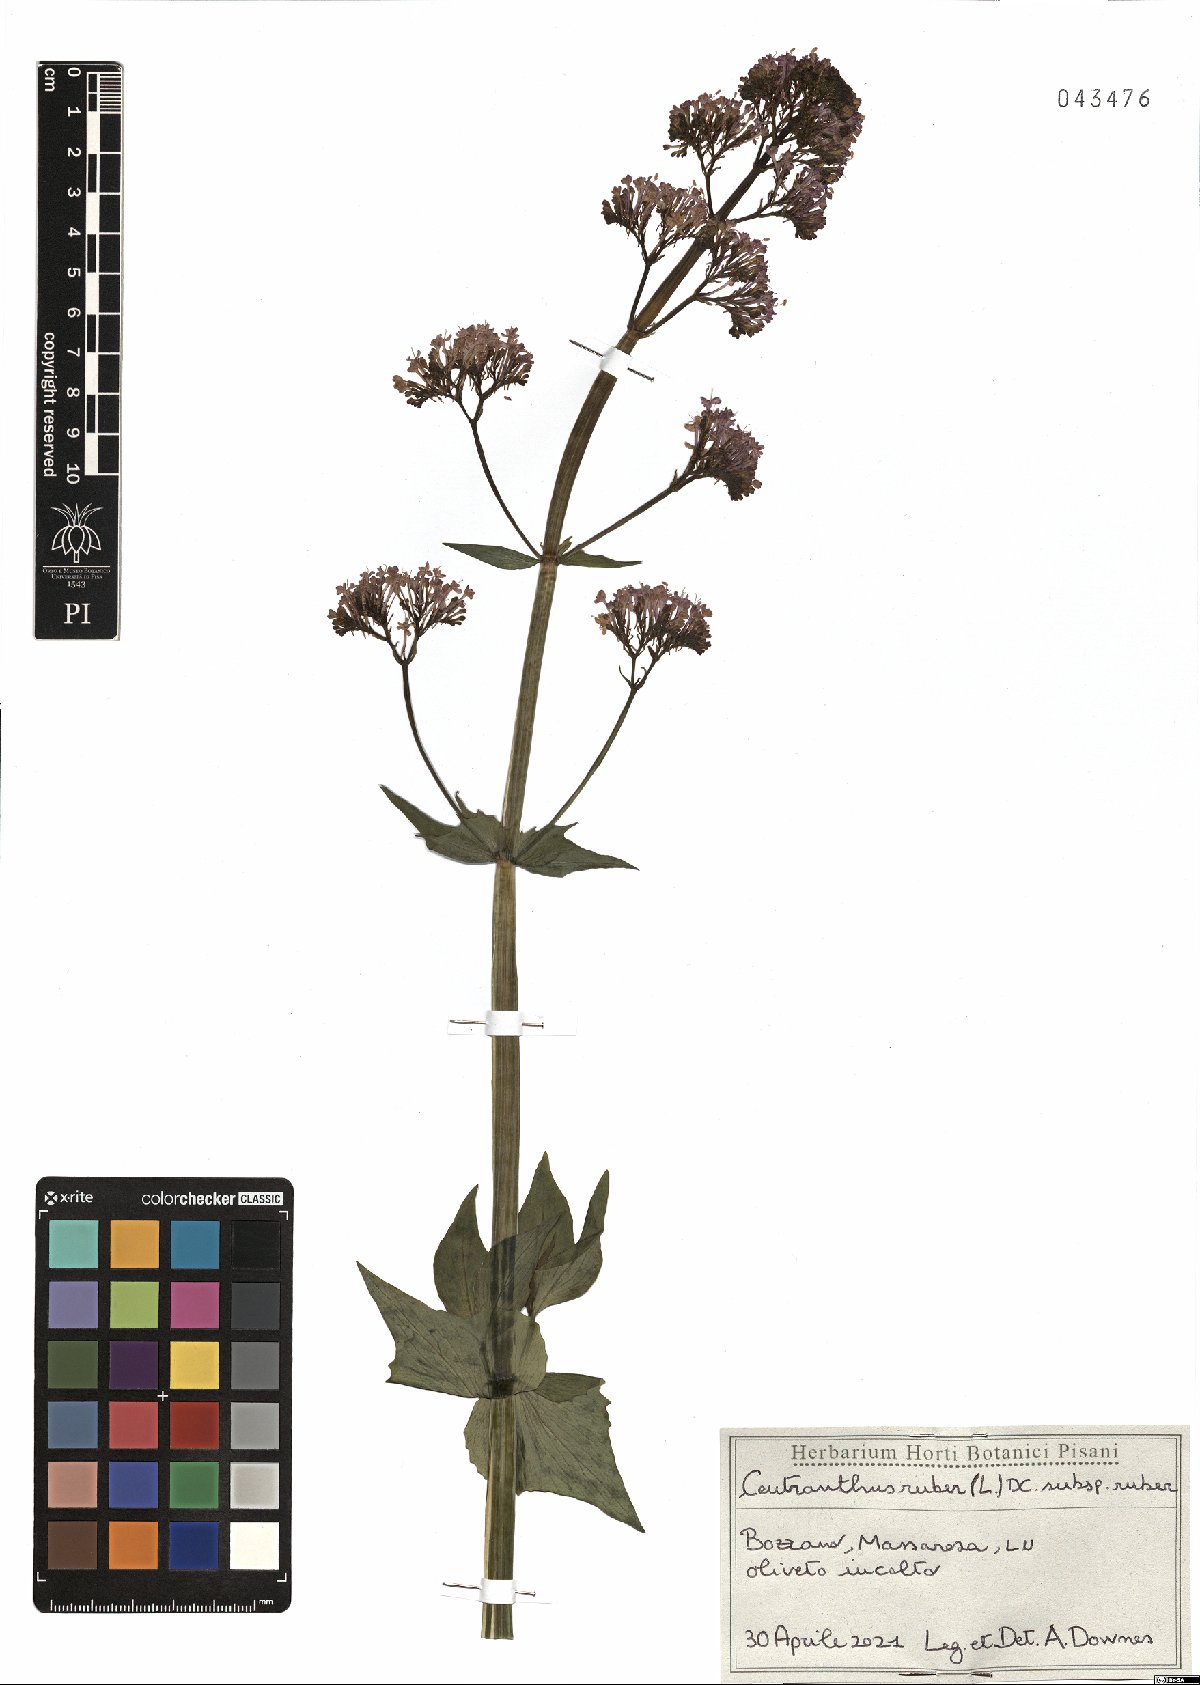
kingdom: Plantae
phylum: Tracheophyta
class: Magnoliopsida
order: Dipsacales
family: Caprifoliaceae
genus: Centranthus
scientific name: Centranthus ruber
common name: Red valerian
